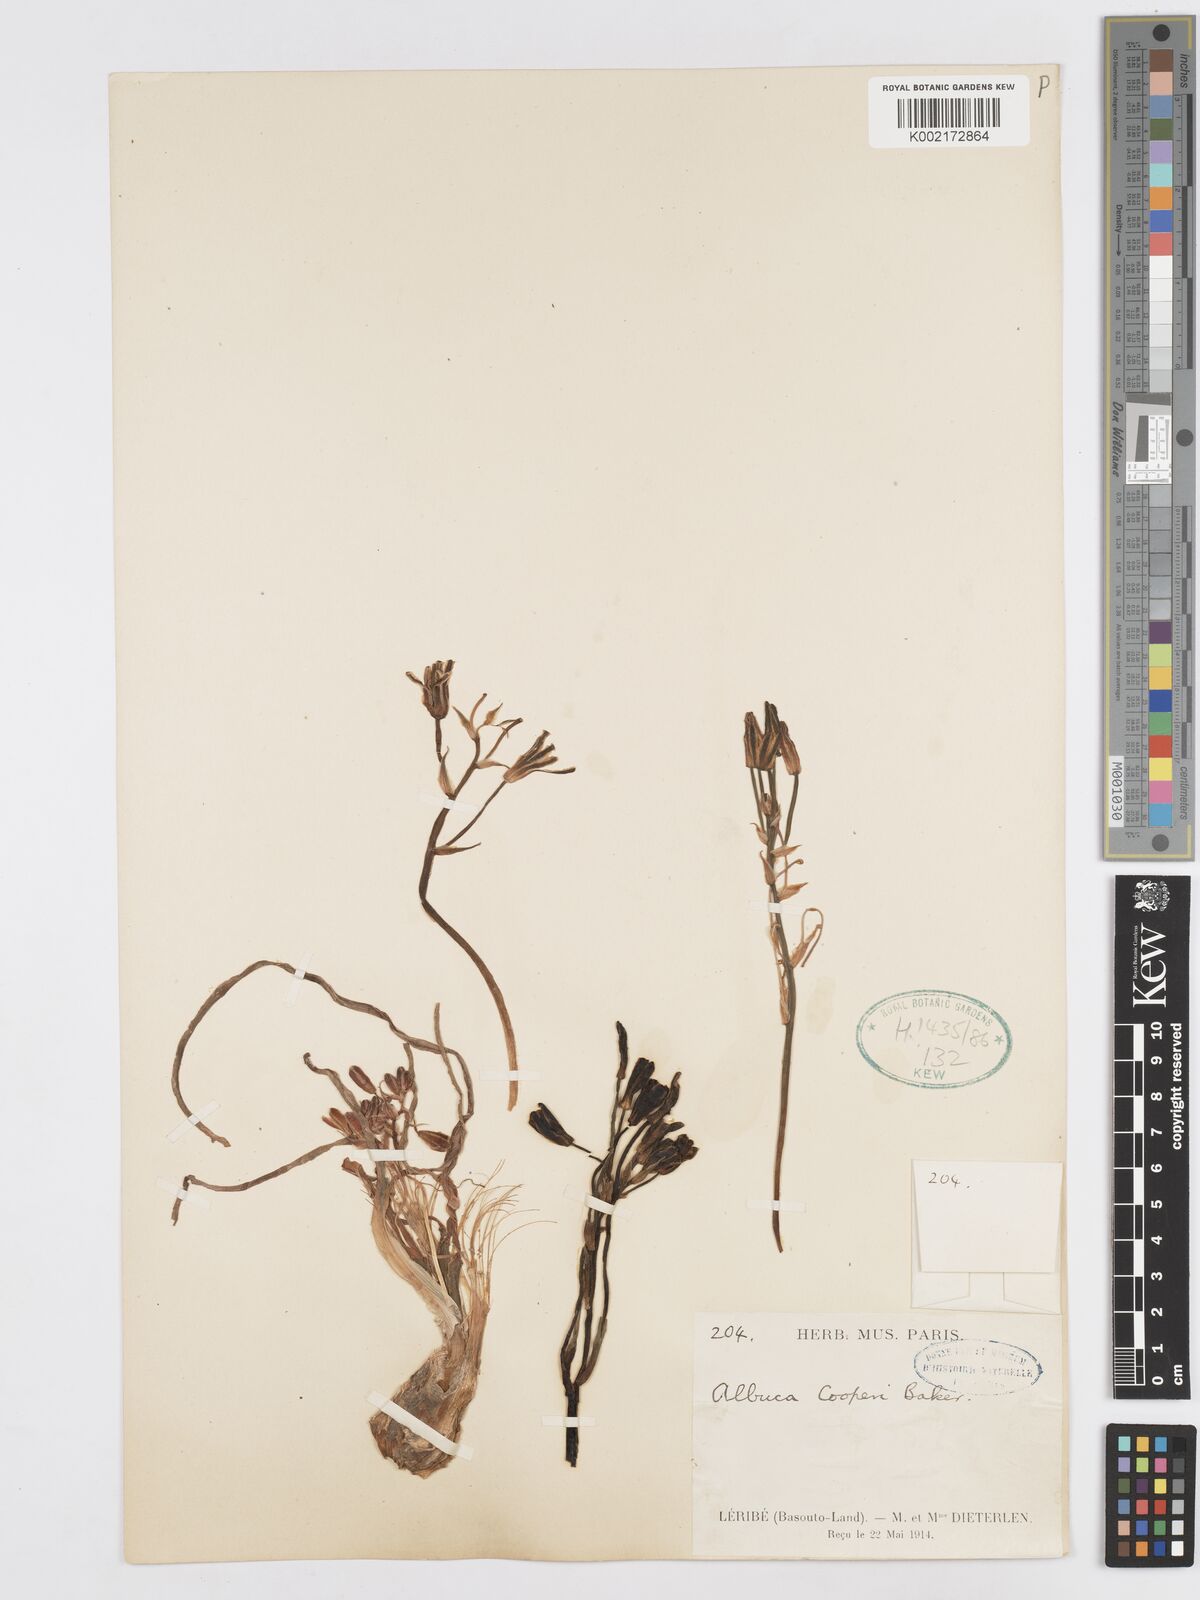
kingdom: Plantae
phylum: Tracheophyta
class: Liliopsida
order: Asparagales
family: Asparagaceae
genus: Albuca
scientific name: Albuca cooperi
